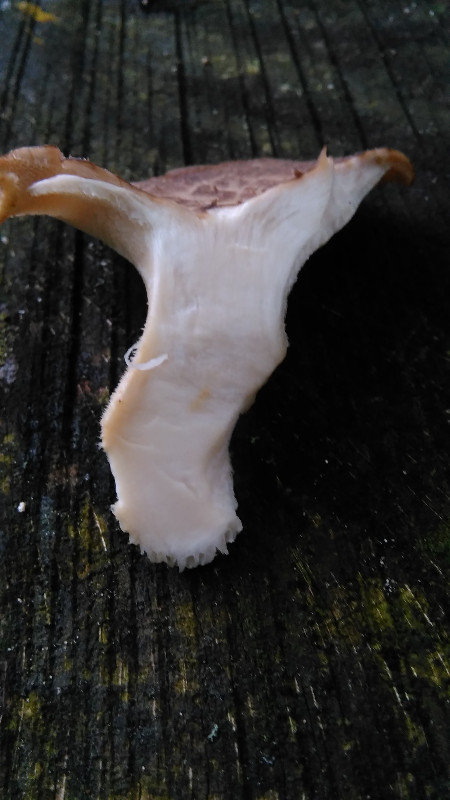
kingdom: Fungi
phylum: Basidiomycota
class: Agaricomycetes
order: Polyporales
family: Polyporaceae
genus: Polyporus
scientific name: Polyporus tuberaster
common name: knoldet stilkporesvamp
